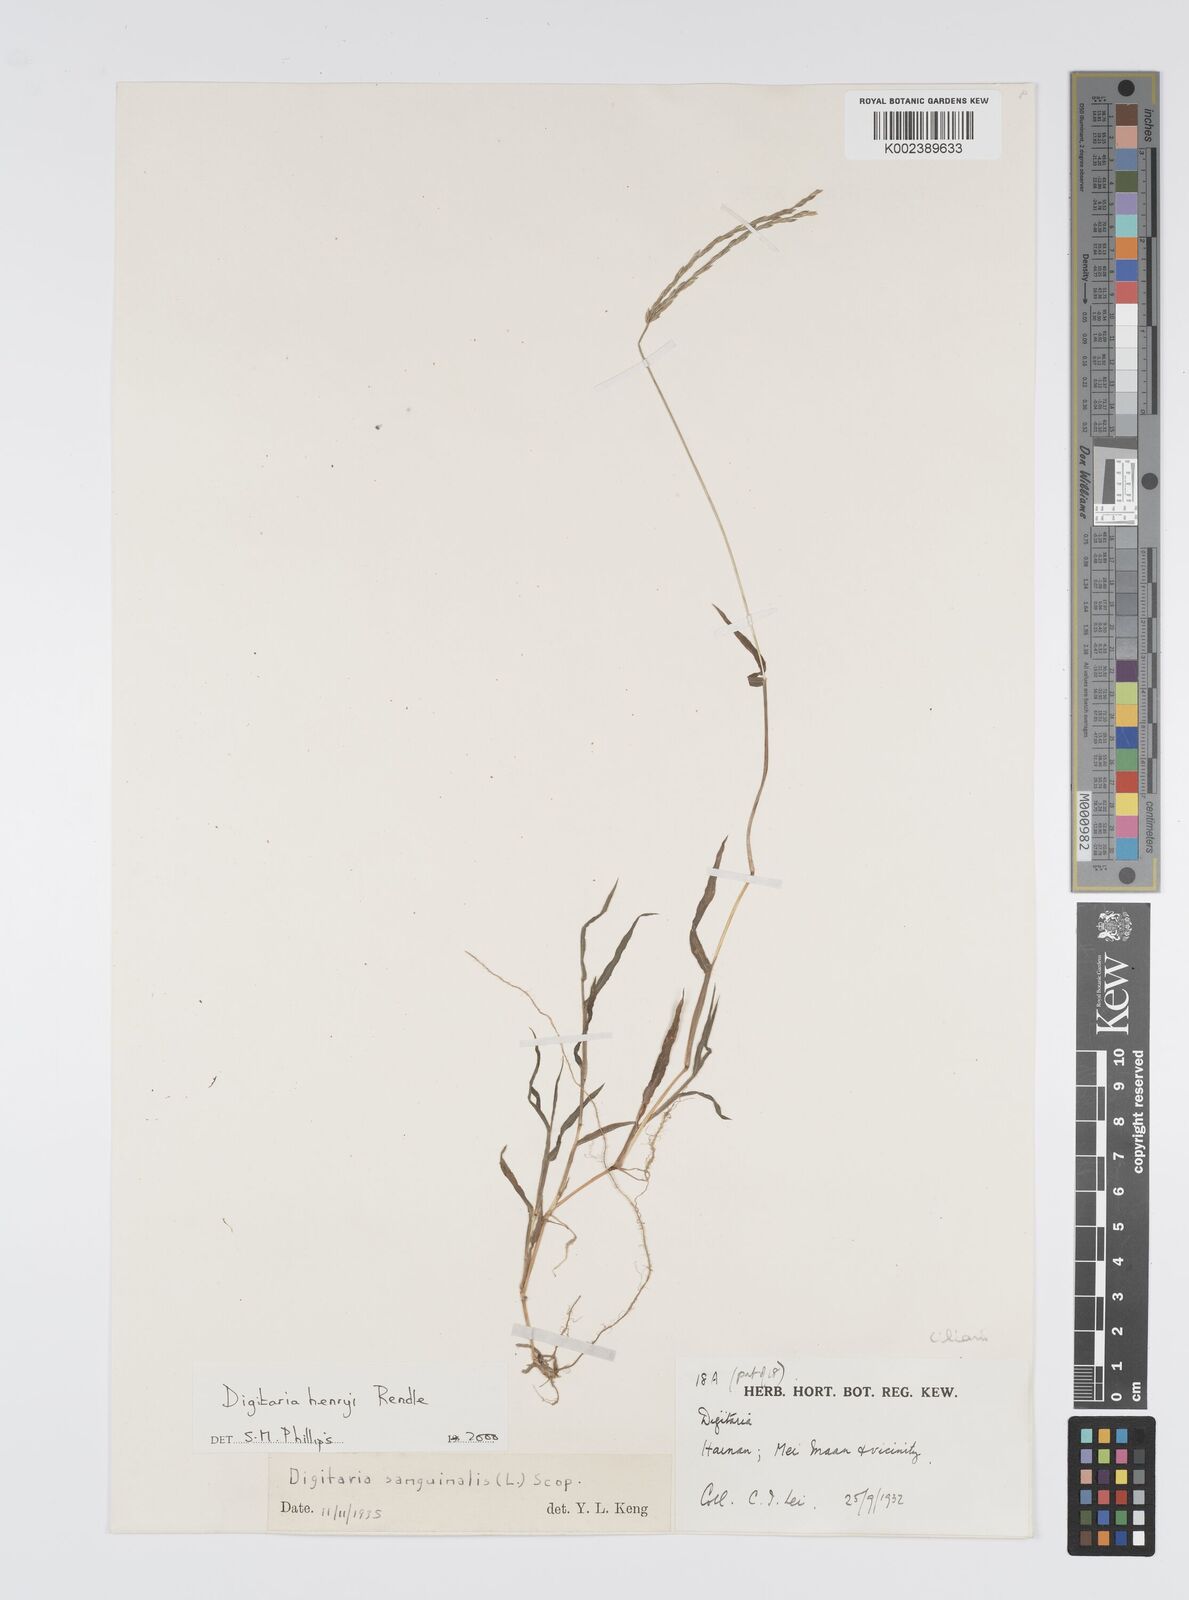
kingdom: Plantae
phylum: Tracheophyta
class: Liliopsida
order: Poales
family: Poaceae
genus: Digitaria
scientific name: Digitaria ciliaris
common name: Tropical finger-grass
